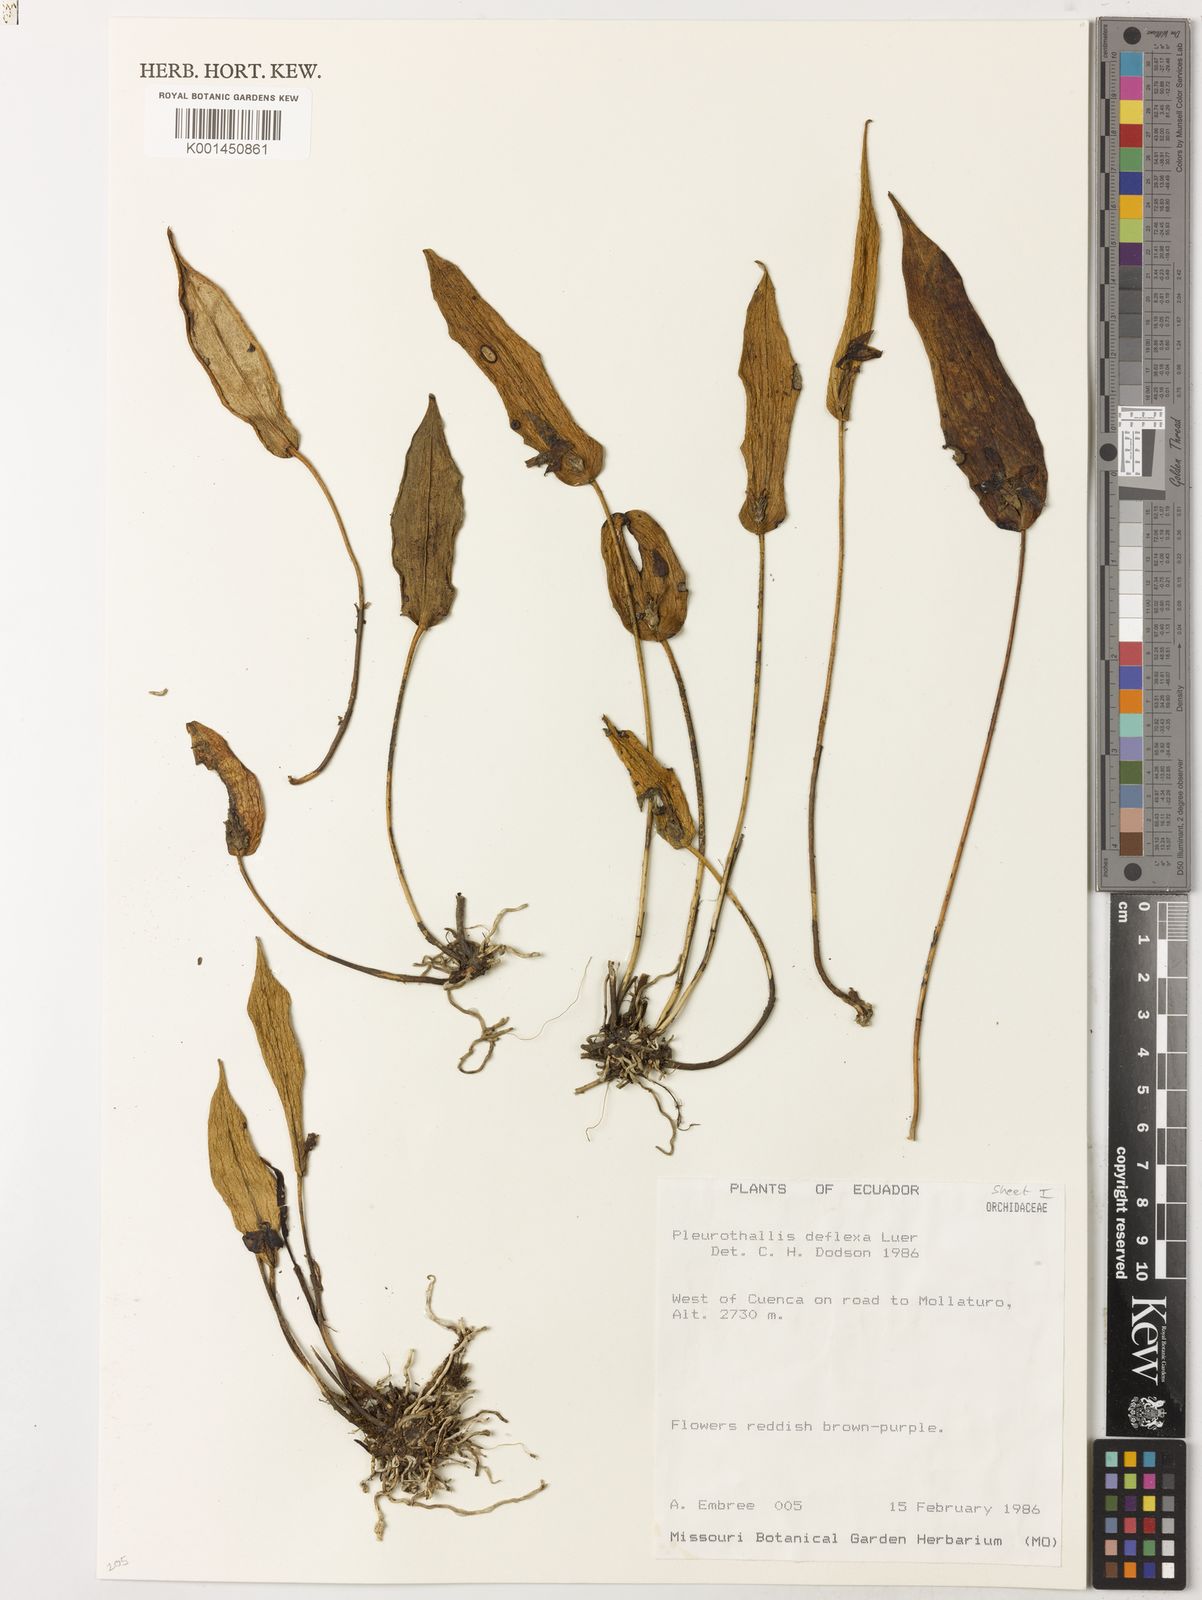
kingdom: Plantae
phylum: Tracheophyta
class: Liliopsida
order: Asparagales
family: Orchidaceae
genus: Pleurothallis
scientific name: Pleurothallis deflexa
